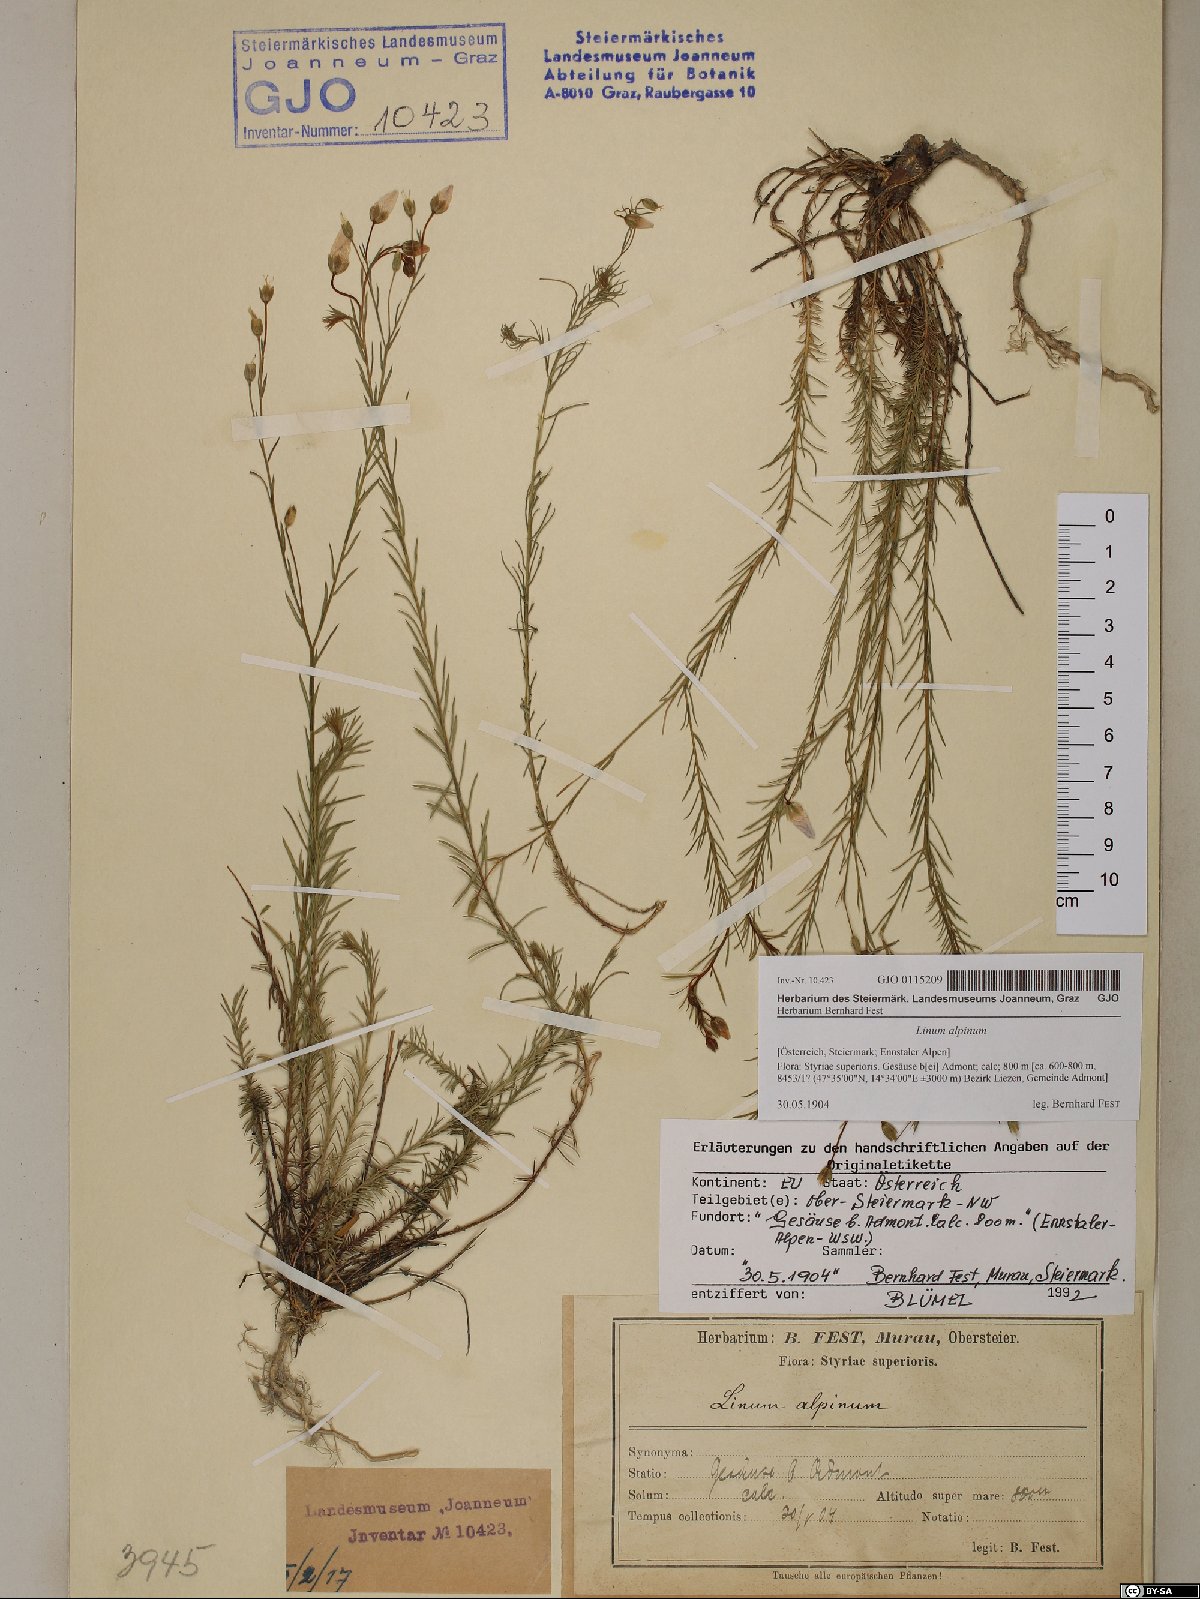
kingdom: Plantae
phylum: Tracheophyta
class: Magnoliopsida
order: Malpighiales
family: Linaceae
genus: Linum
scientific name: Linum alpinum
